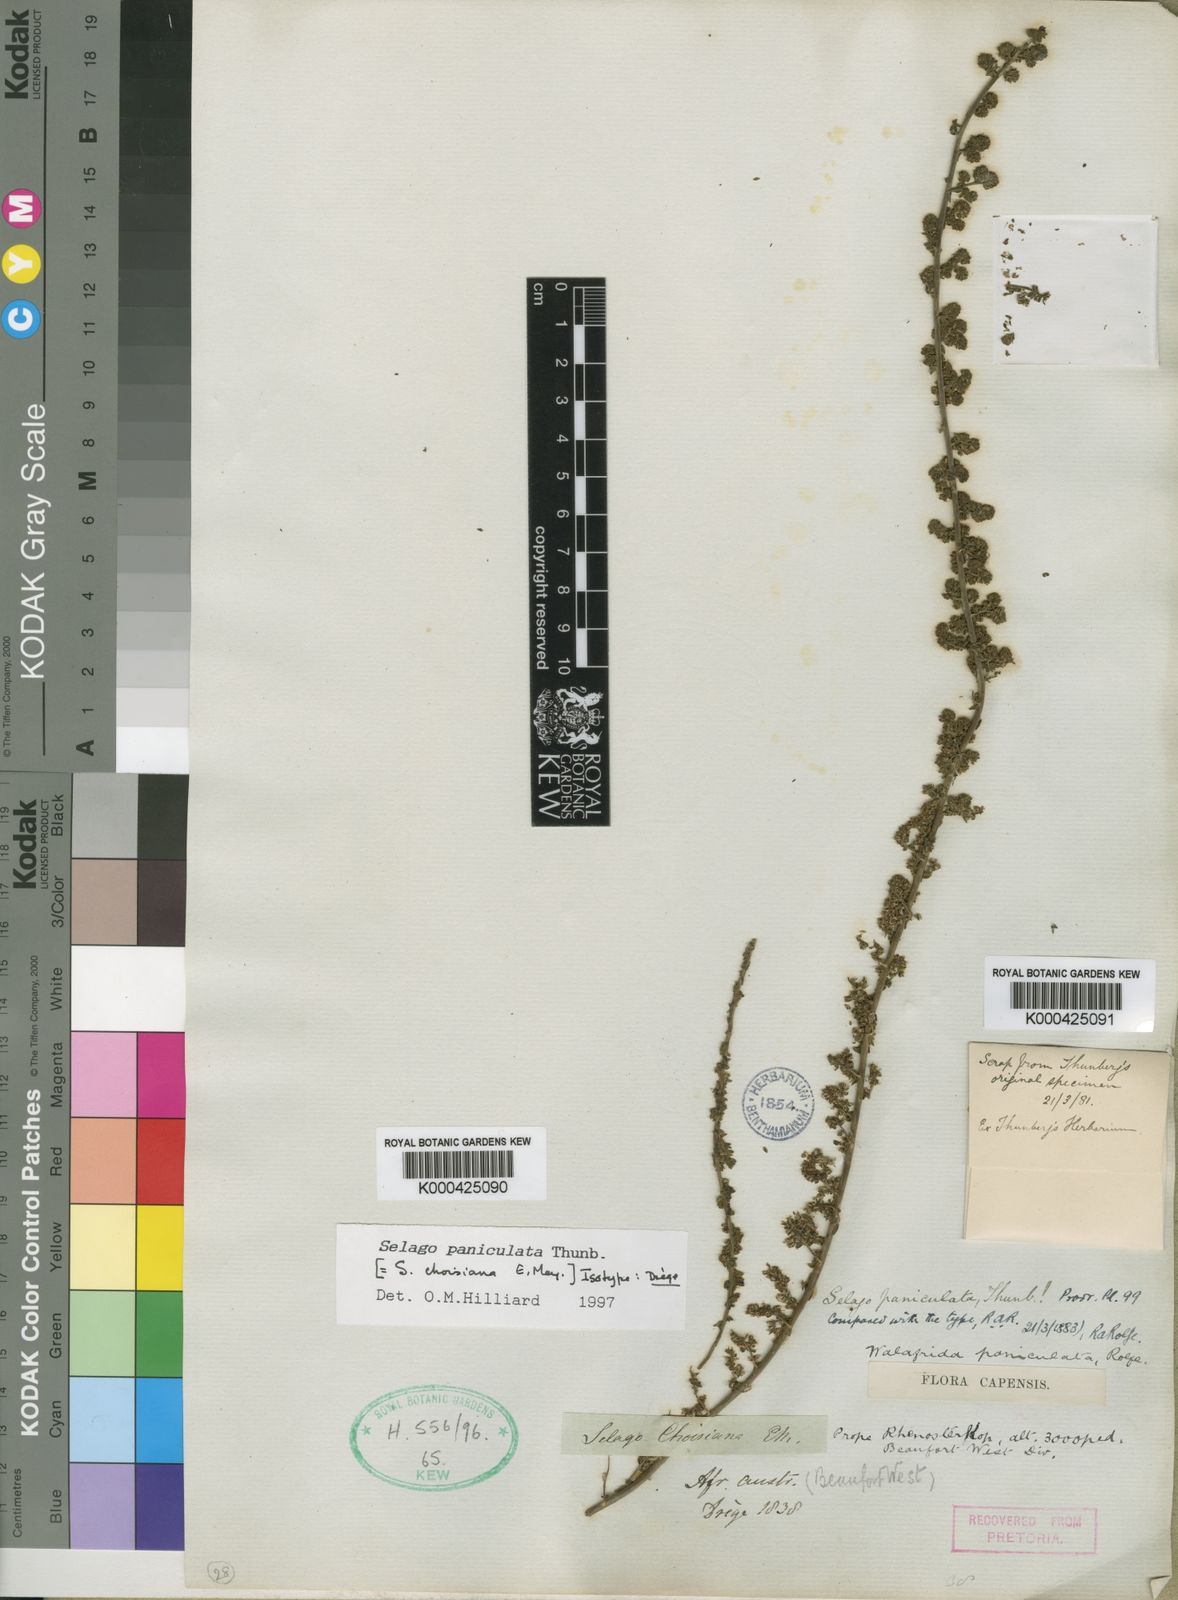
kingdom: Plantae
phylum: Tracheophyta
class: Magnoliopsida
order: Lamiales
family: Scrophulariaceae
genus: Selago
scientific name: Selago paniculata
